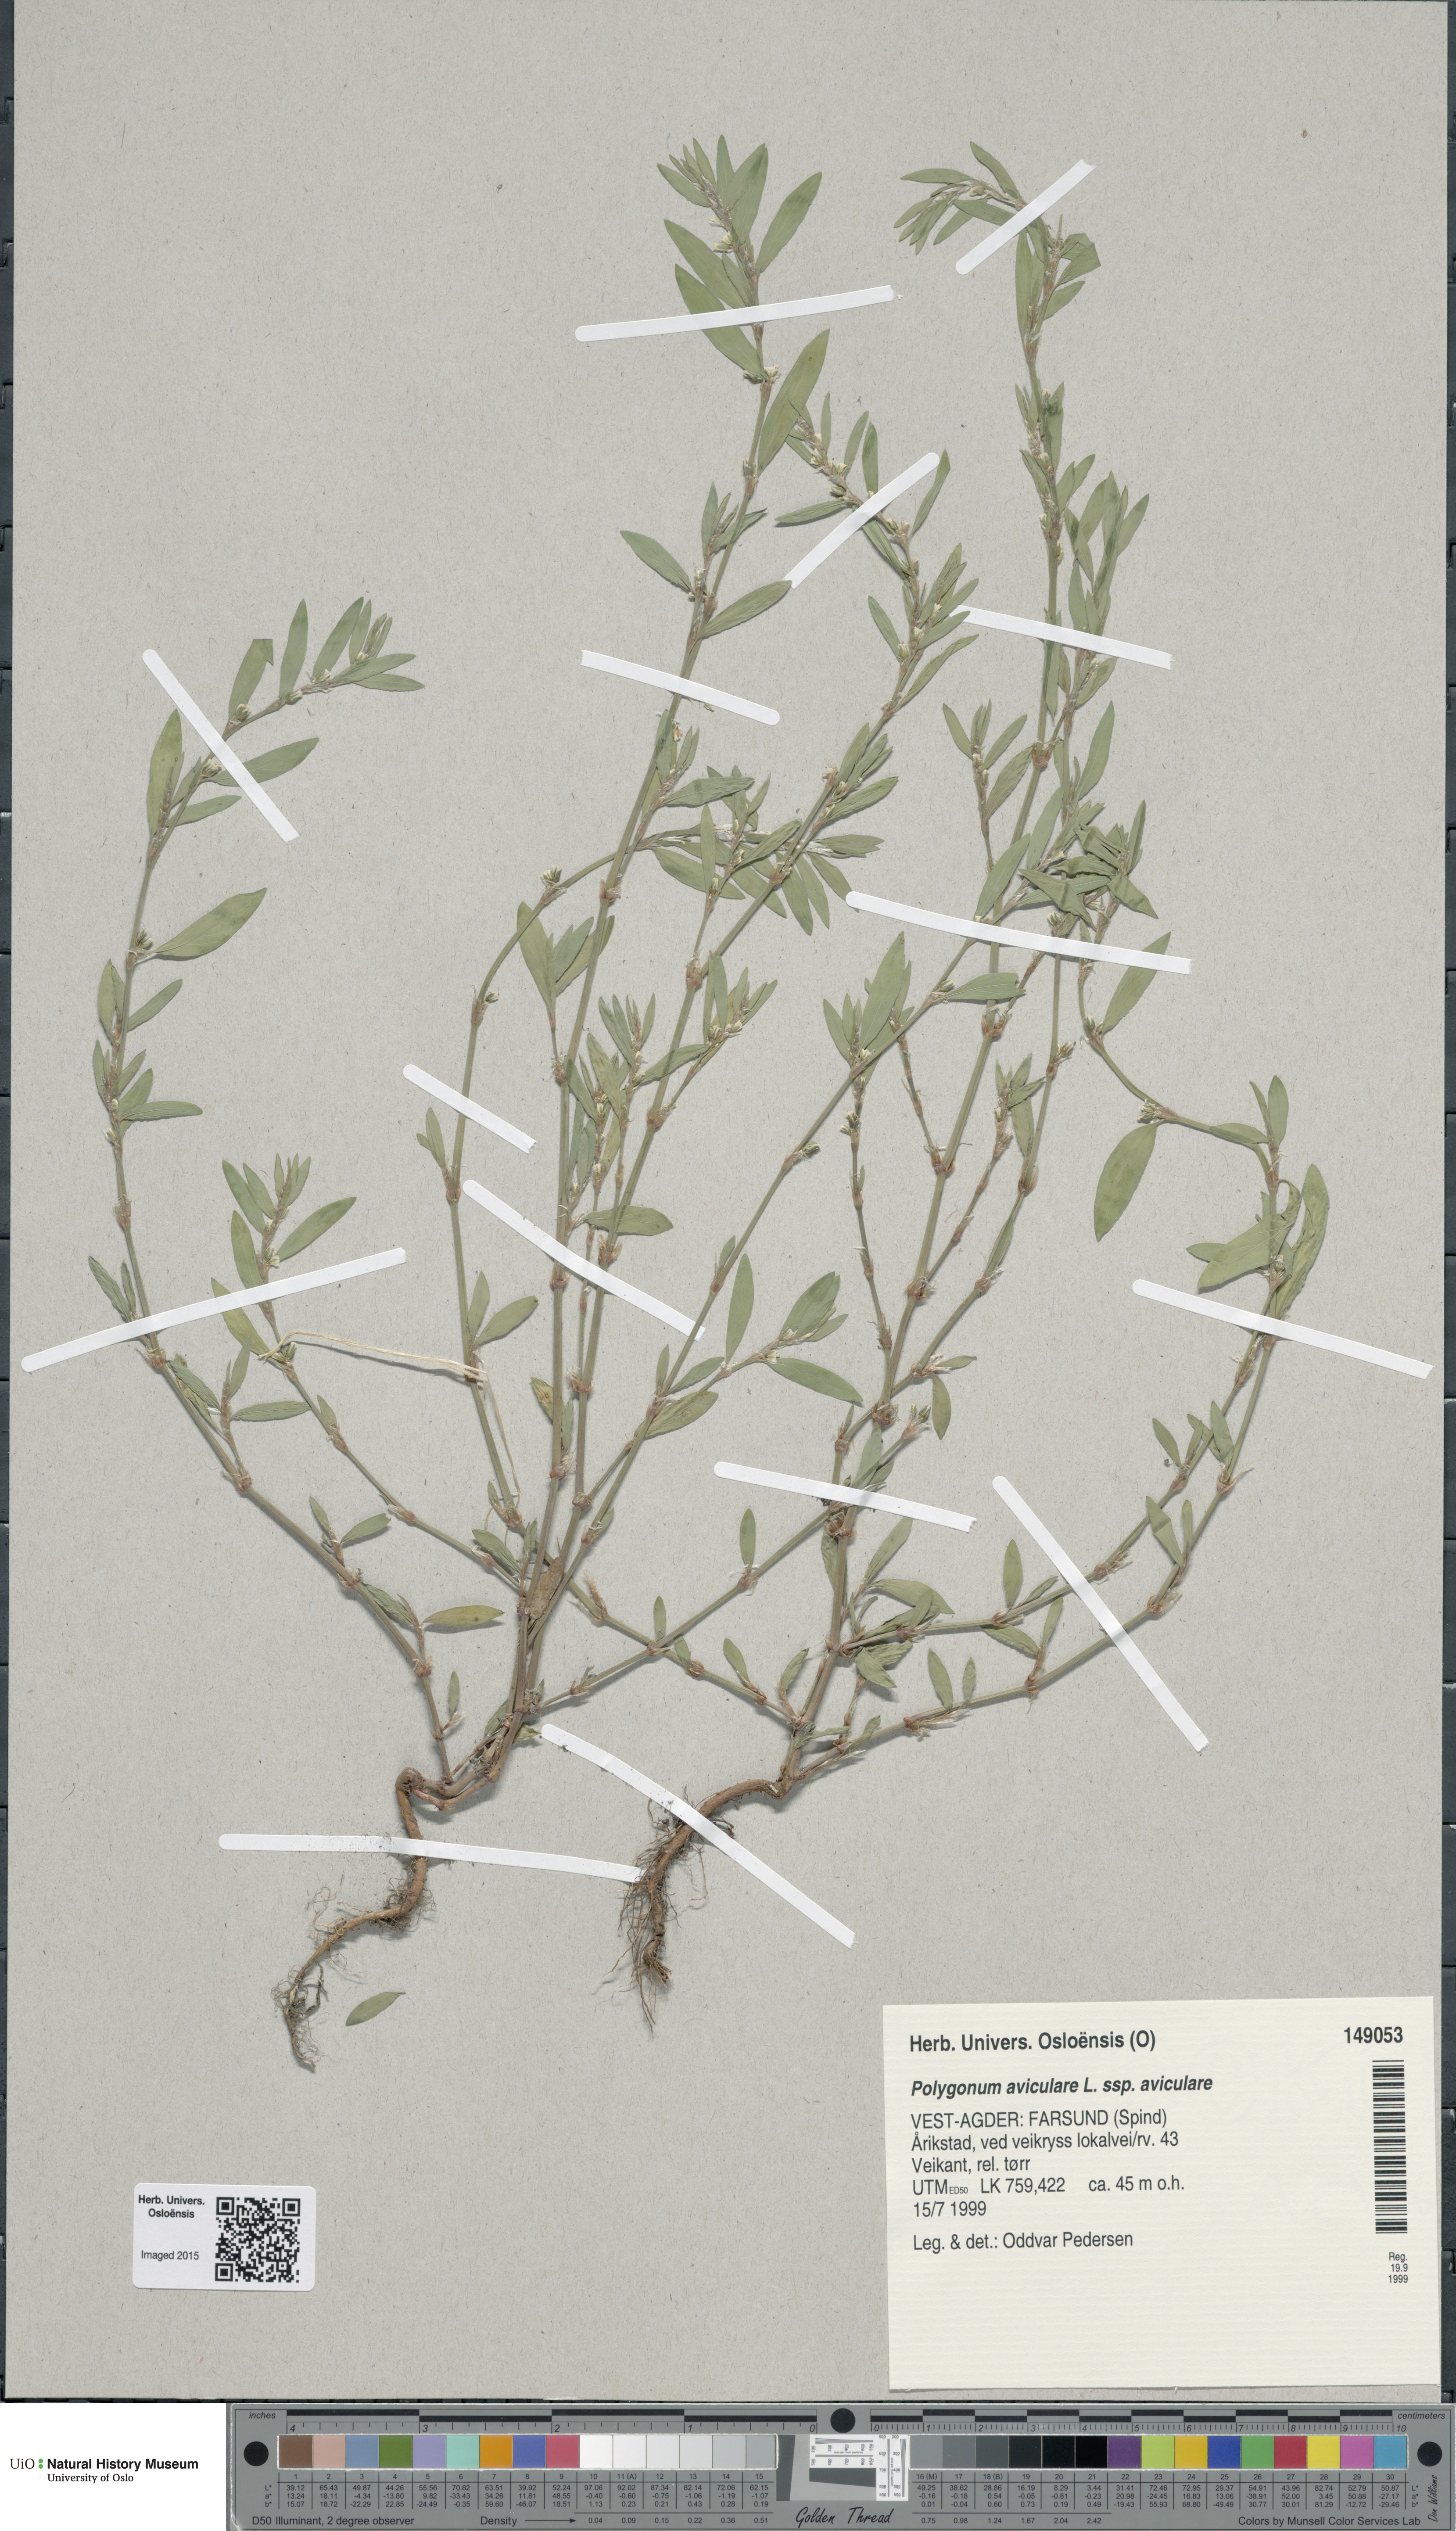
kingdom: Plantae
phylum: Tracheophyta
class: Magnoliopsida
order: Caryophyllales
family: Polygonaceae
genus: Polygonum
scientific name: Polygonum aviculare
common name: Prostrate knotweed
